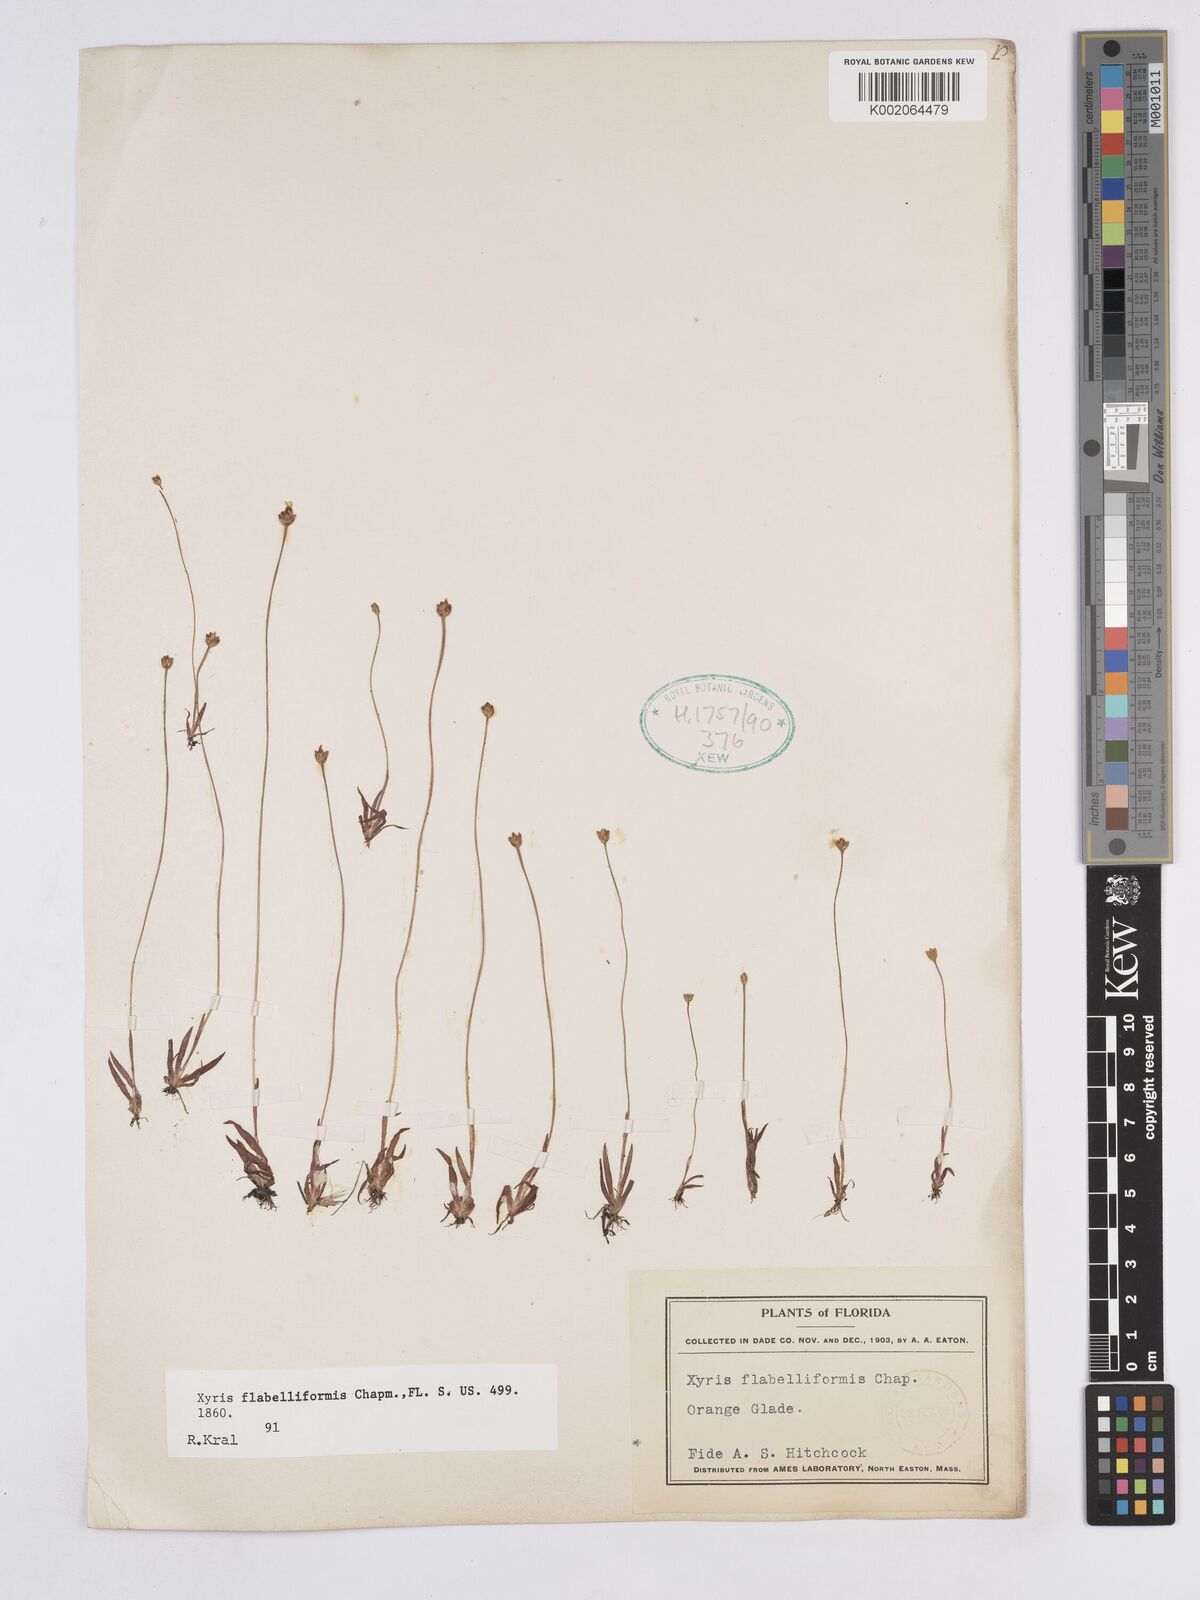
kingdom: Plantae
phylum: Tracheophyta
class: Liliopsida
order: Poales
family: Xyridaceae
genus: Xyris
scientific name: Xyris flabelliformis
